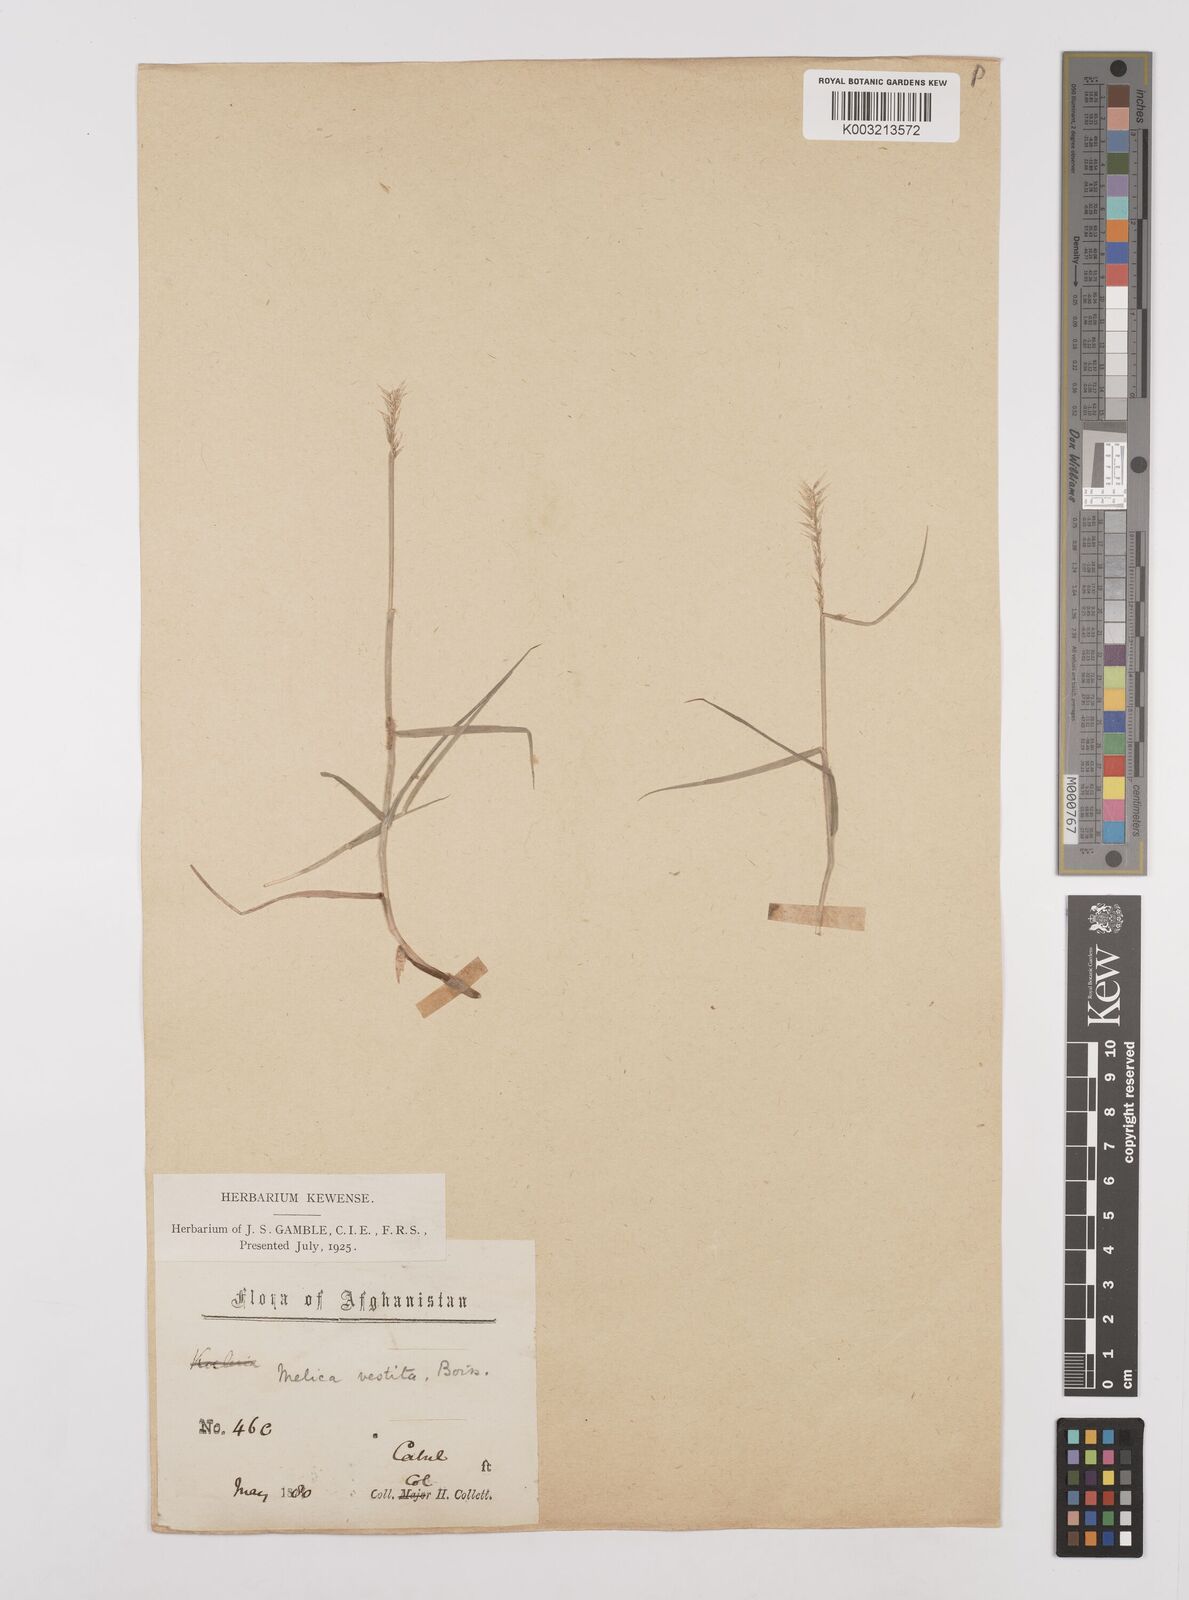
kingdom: Plantae
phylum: Tracheophyta
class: Liliopsida
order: Poales
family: Poaceae
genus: Melica
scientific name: Melica persica
